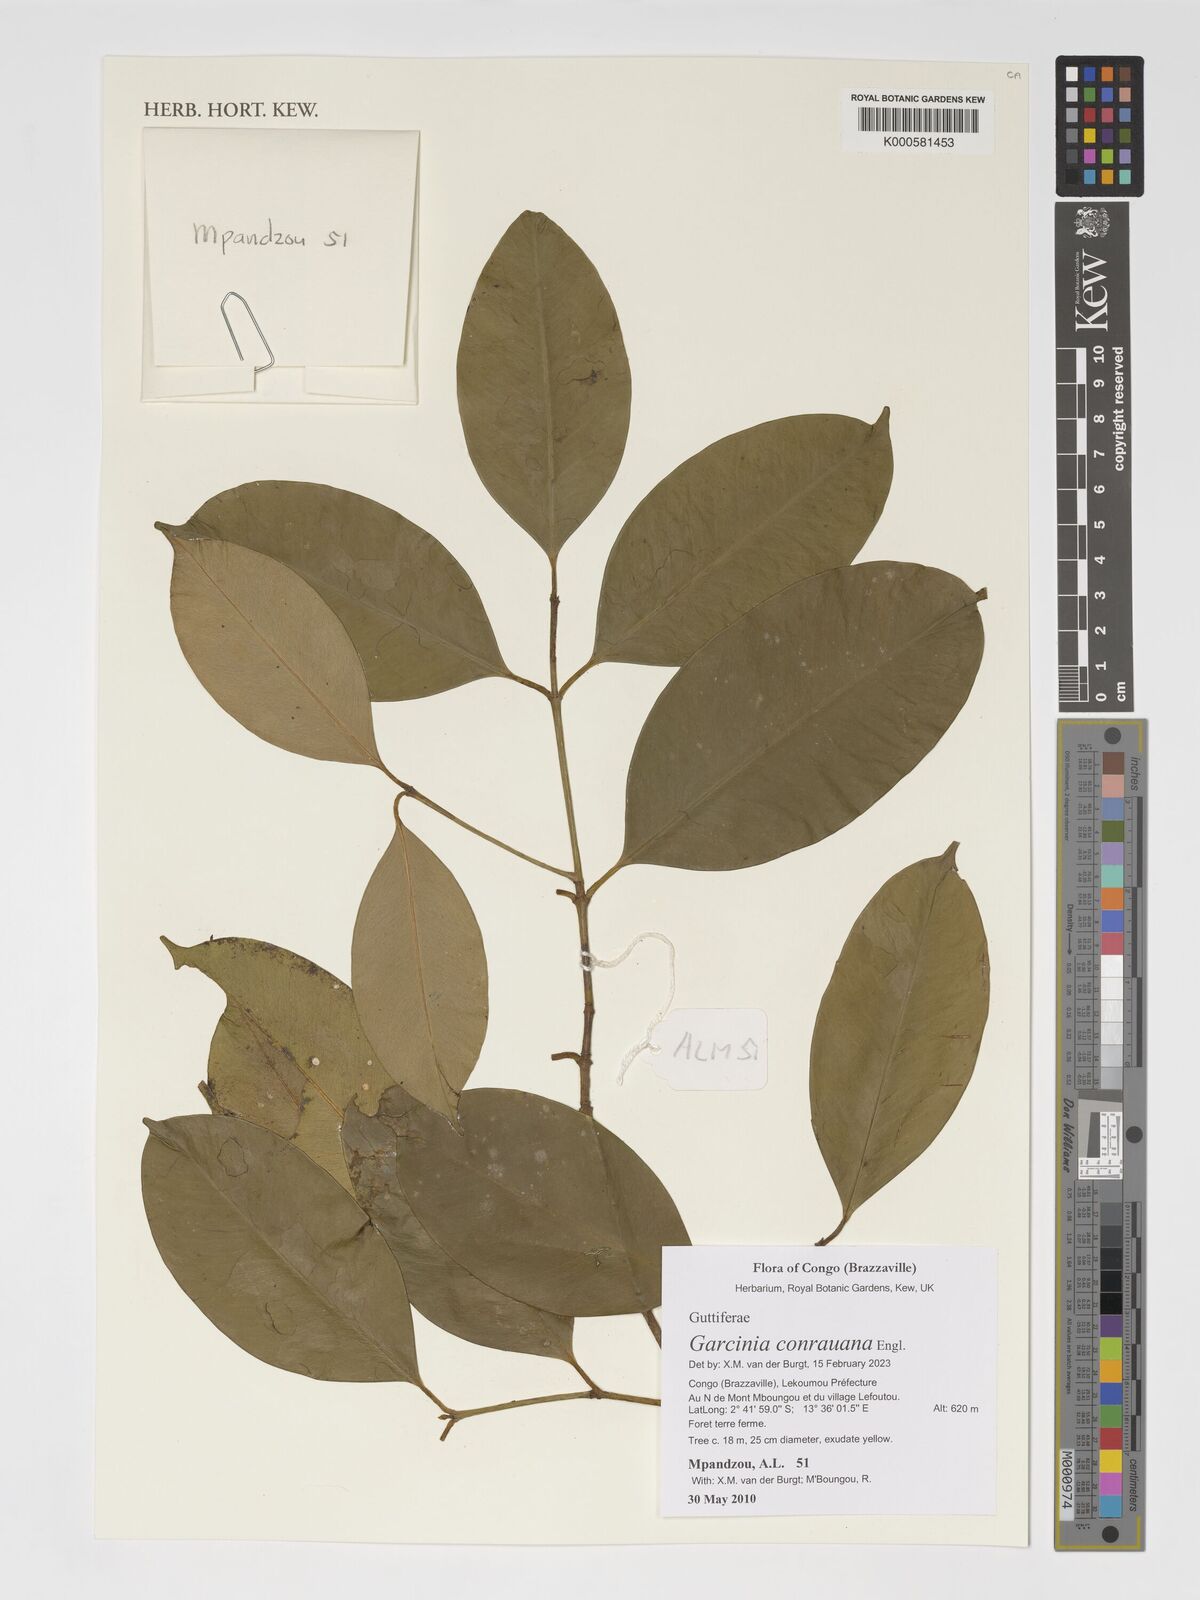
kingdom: Plantae
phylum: Tracheophyta
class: Magnoliopsida
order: Malpighiales
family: Clusiaceae
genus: Garcinia
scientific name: Garcinia conrauana
